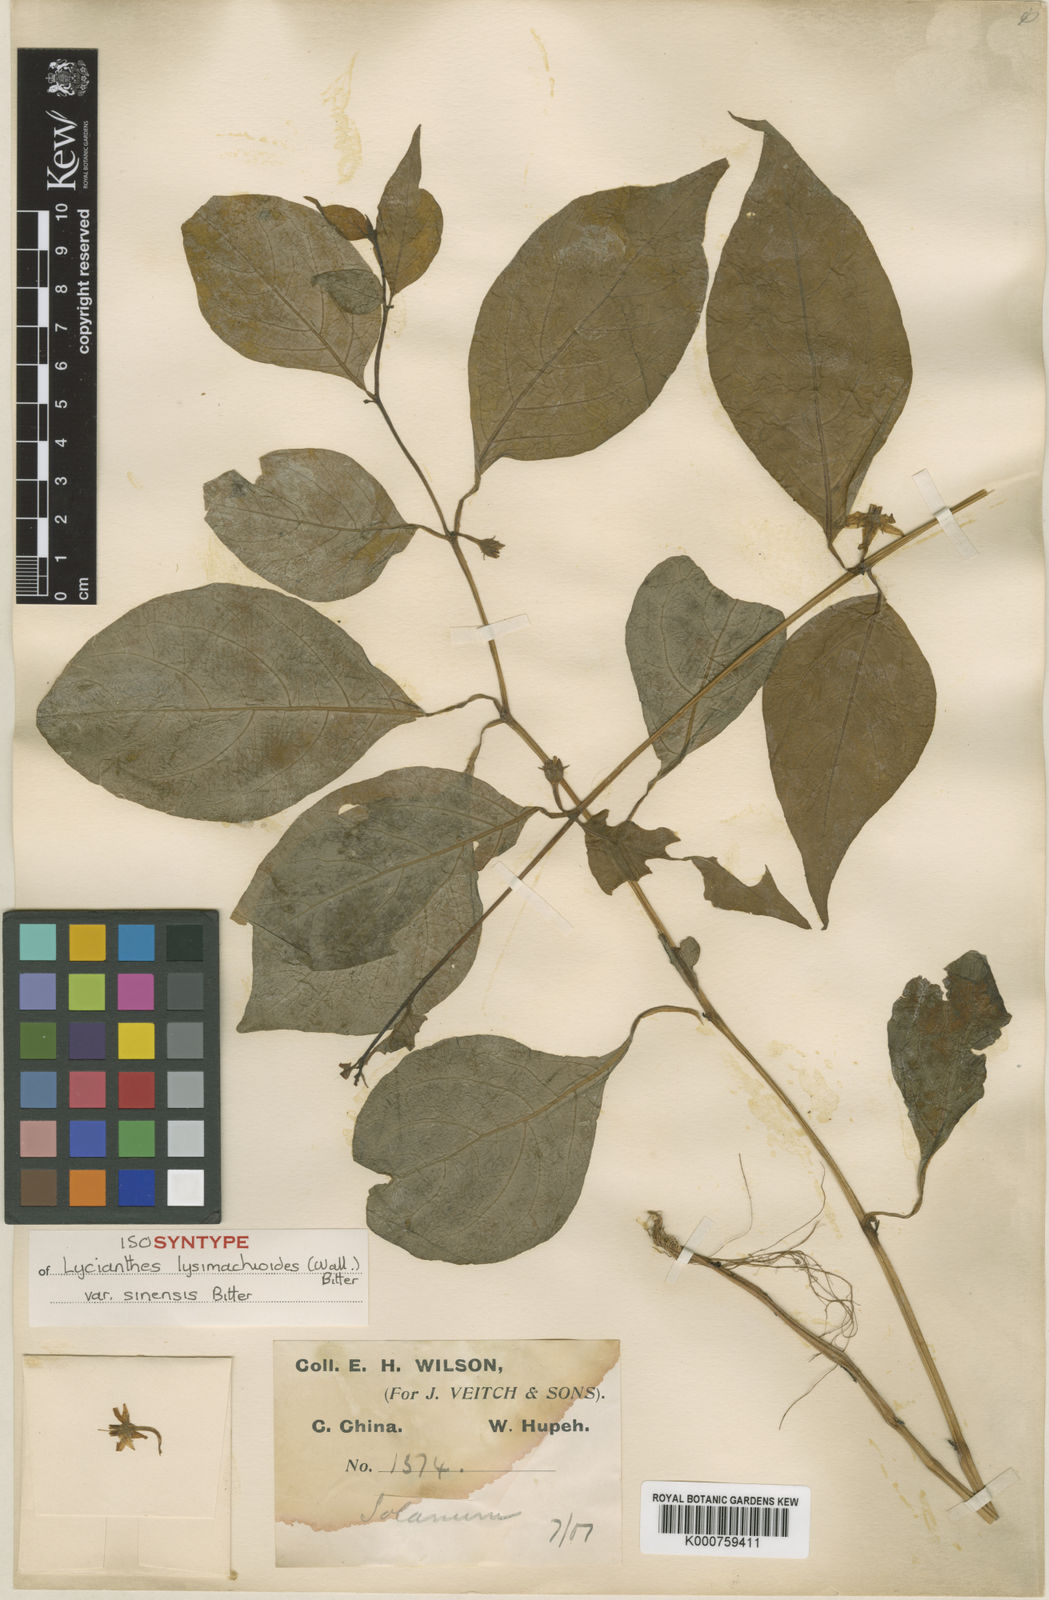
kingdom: Plantae
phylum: Tracheophyta
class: Magnoliopsida
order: Solanales
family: Solanaceae
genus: Lycianthes
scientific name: Lycianthes lysimachioides
